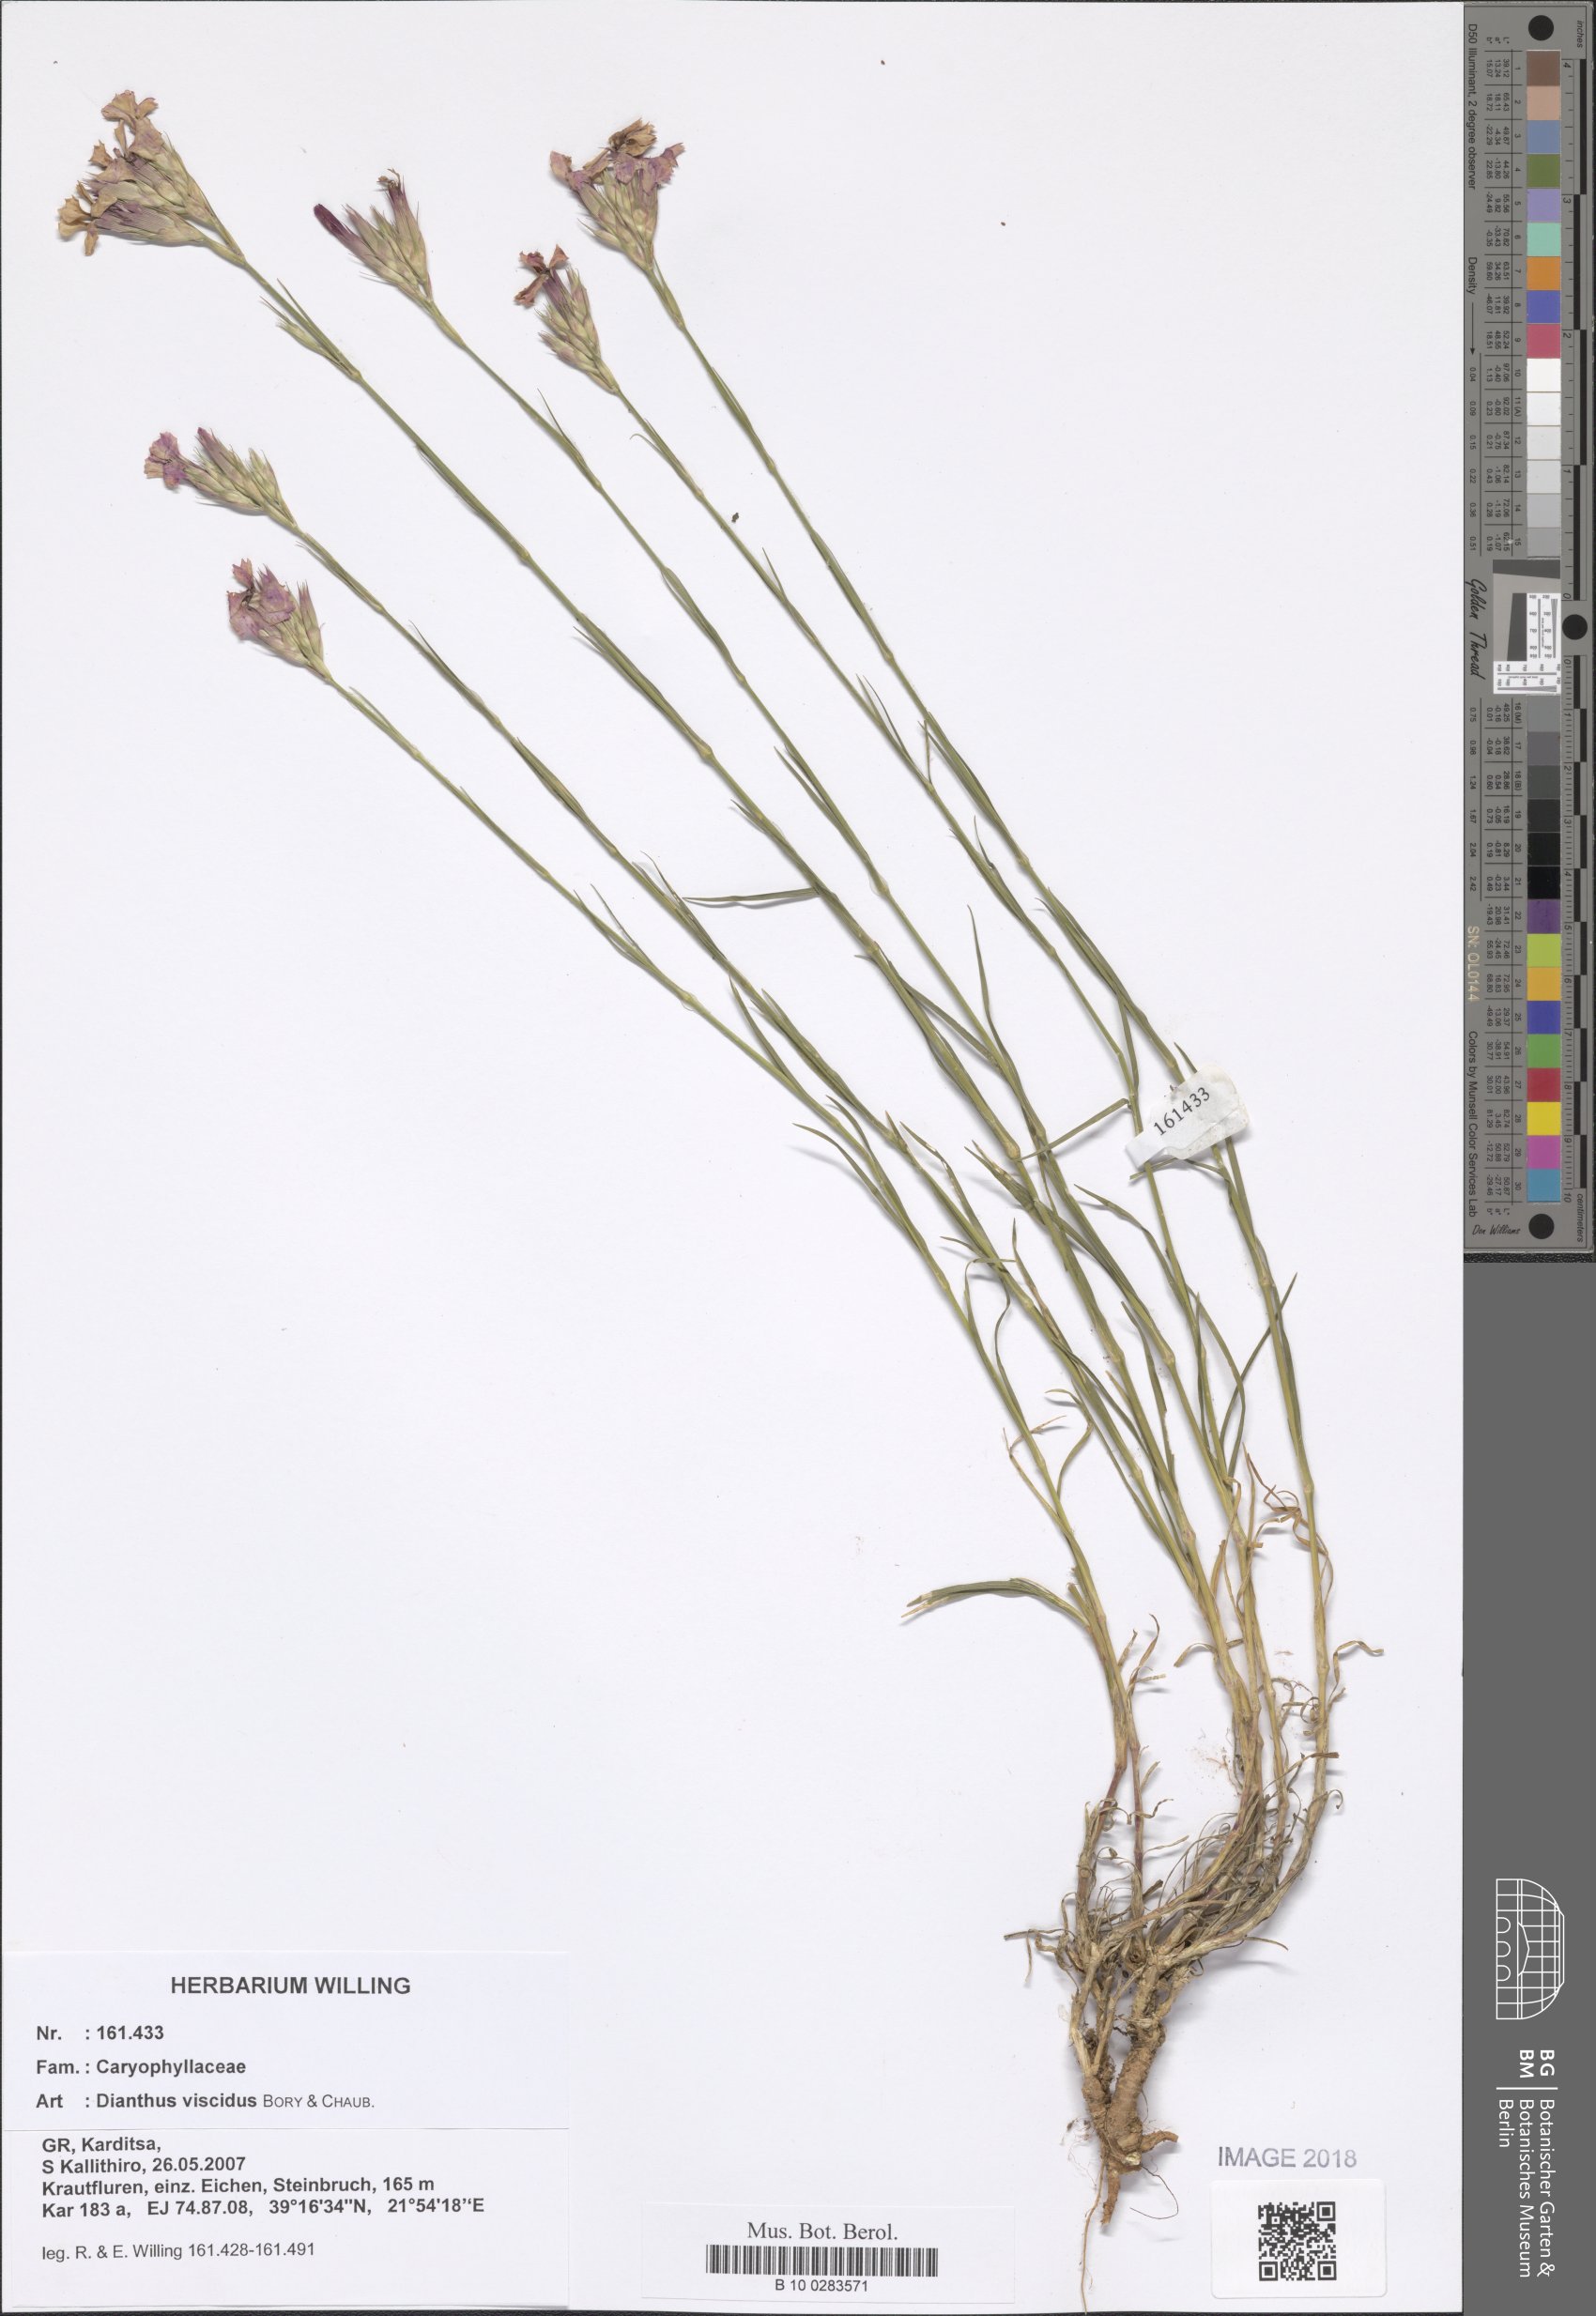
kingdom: Plantae
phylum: Tracheophyta
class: Magnoliopsida
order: Caryophyllales
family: Caryophyllaceae
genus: Dianthus
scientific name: Dianthus viscidus
